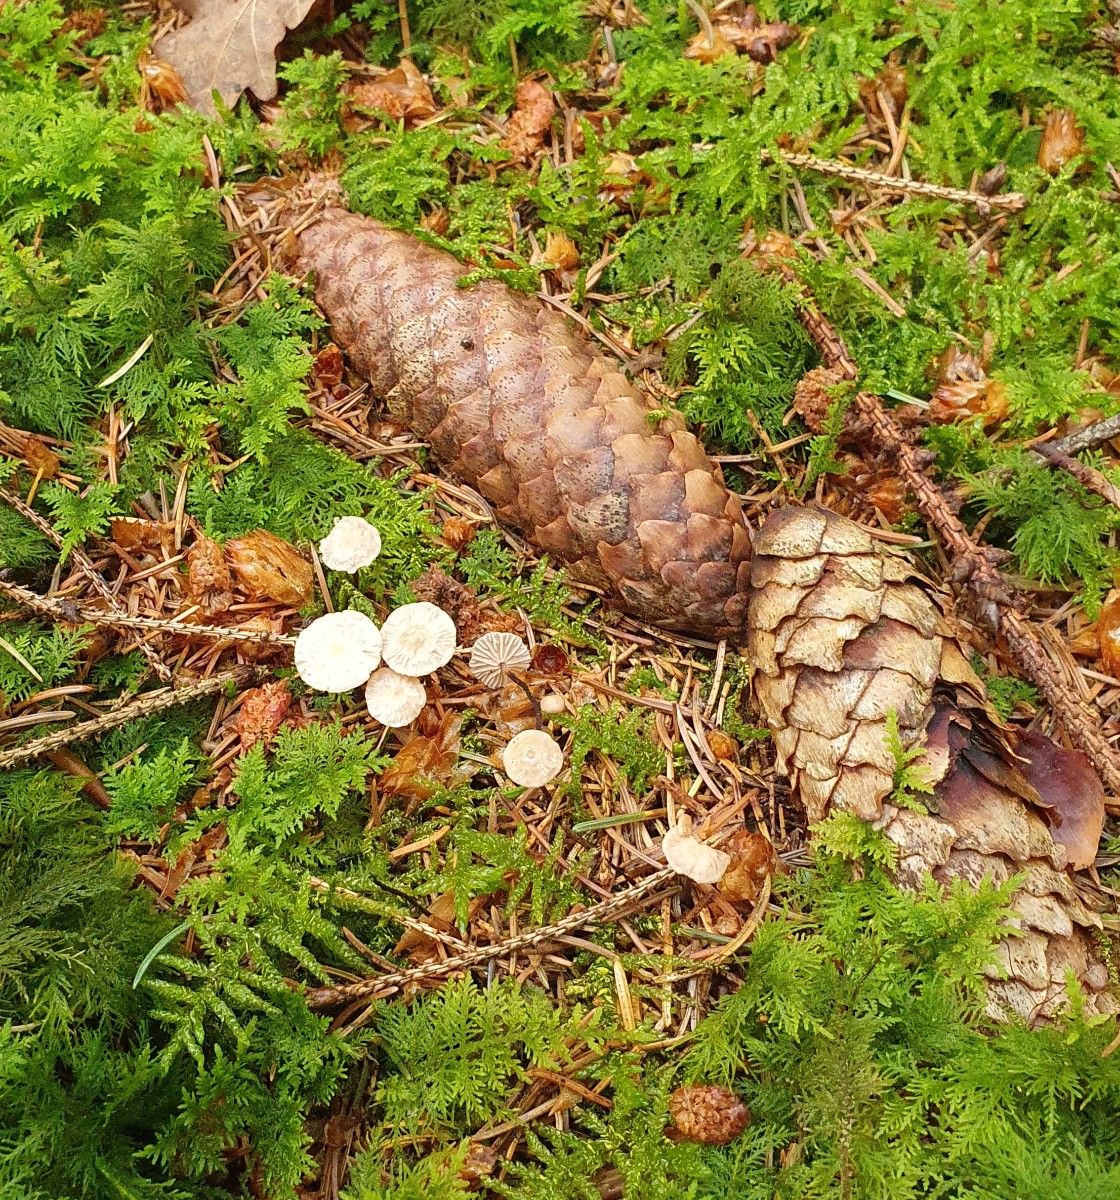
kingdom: Fungi
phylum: Basidiomycota
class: Agaricomycetes
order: Agaricales
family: Omphalotaceae
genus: Paragymnopus
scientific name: Paragymnopus perforans
